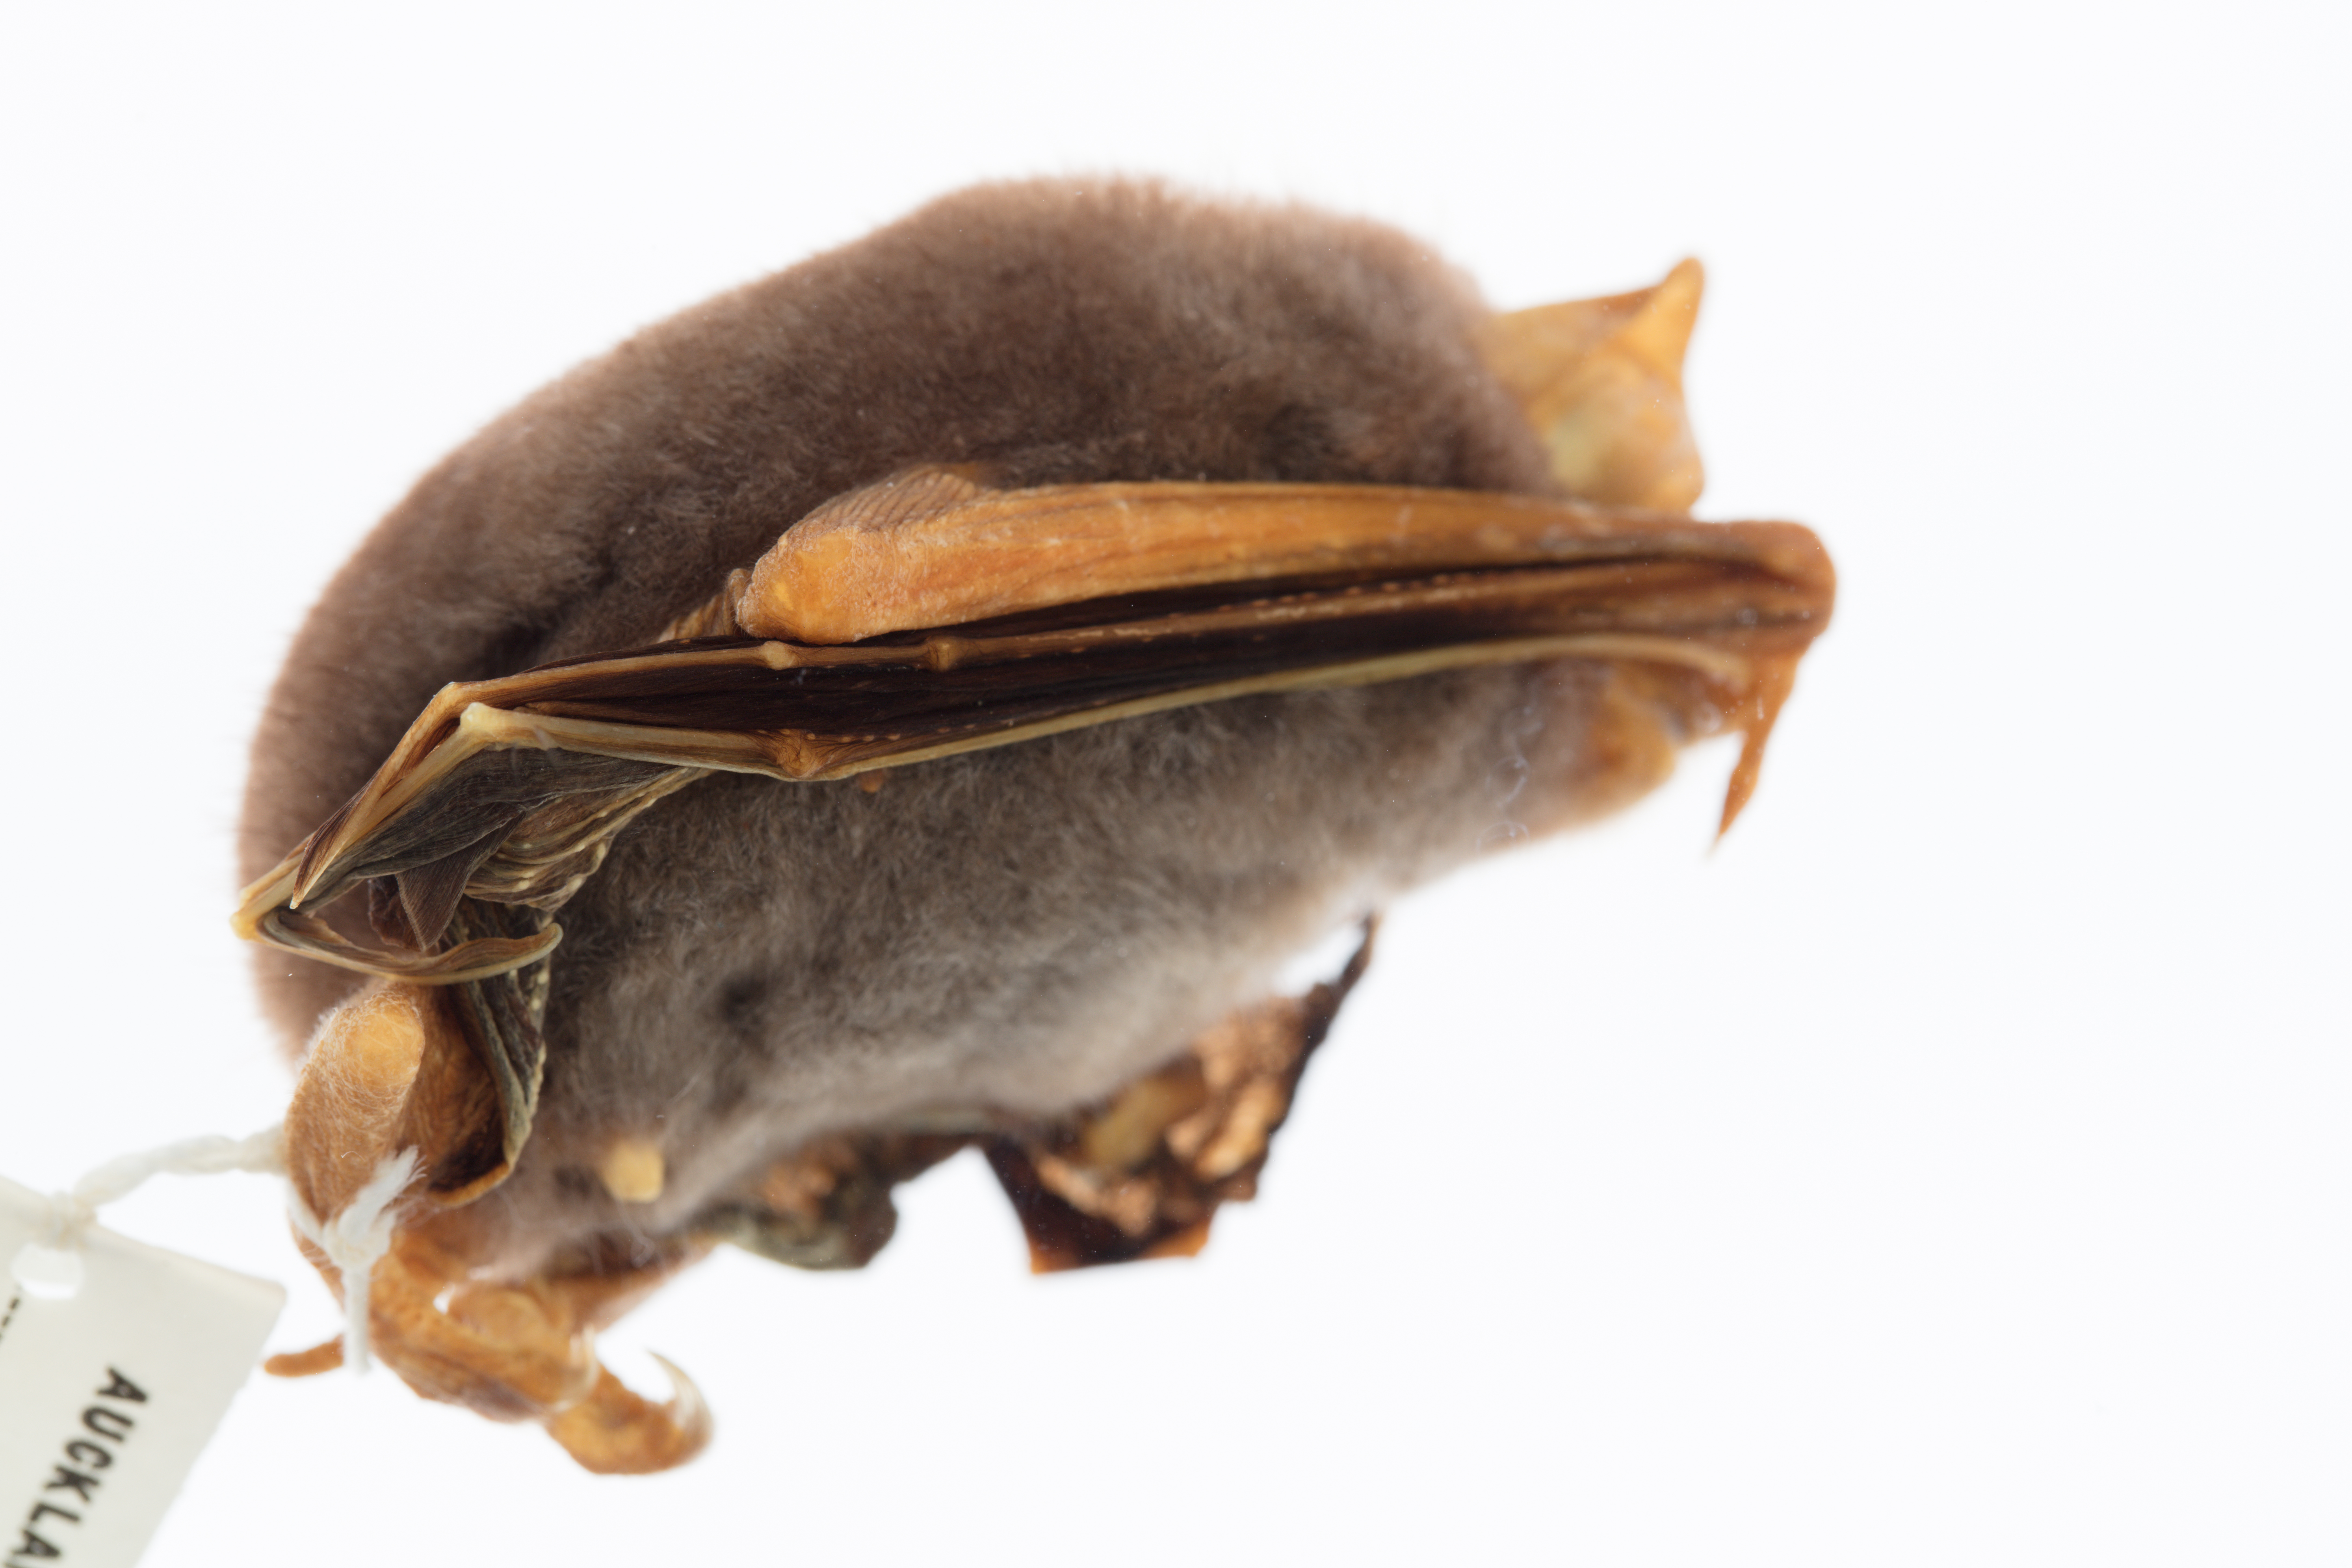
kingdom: Animalia
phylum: Chordata
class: Mammalia
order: Chiroptera
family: Mystacinidae
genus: Mystacina
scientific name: Mystacina tuberculata
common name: New zealand lesser short-tailed bat
